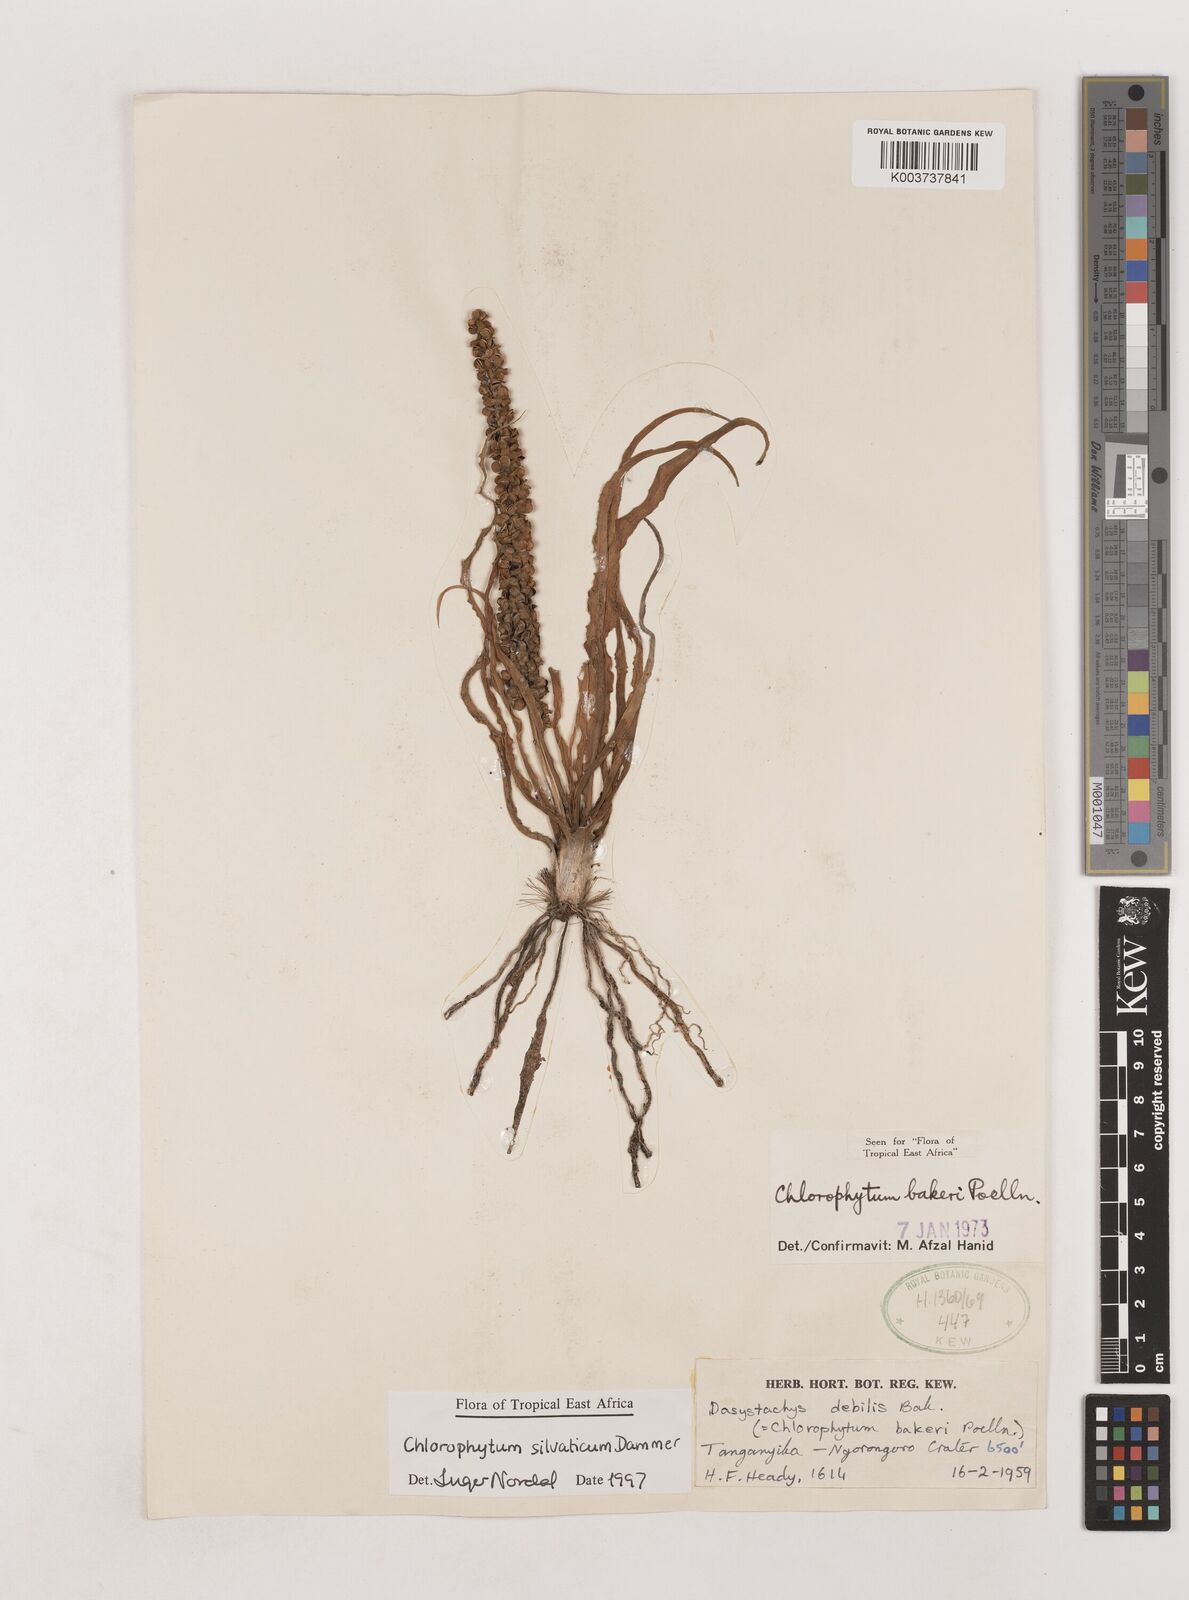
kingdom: Plantae
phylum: Tracheophyta
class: Liliopsida
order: Asparagales
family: Asparagaceae
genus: Chlorophytum
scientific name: Chlorophytum africanum
